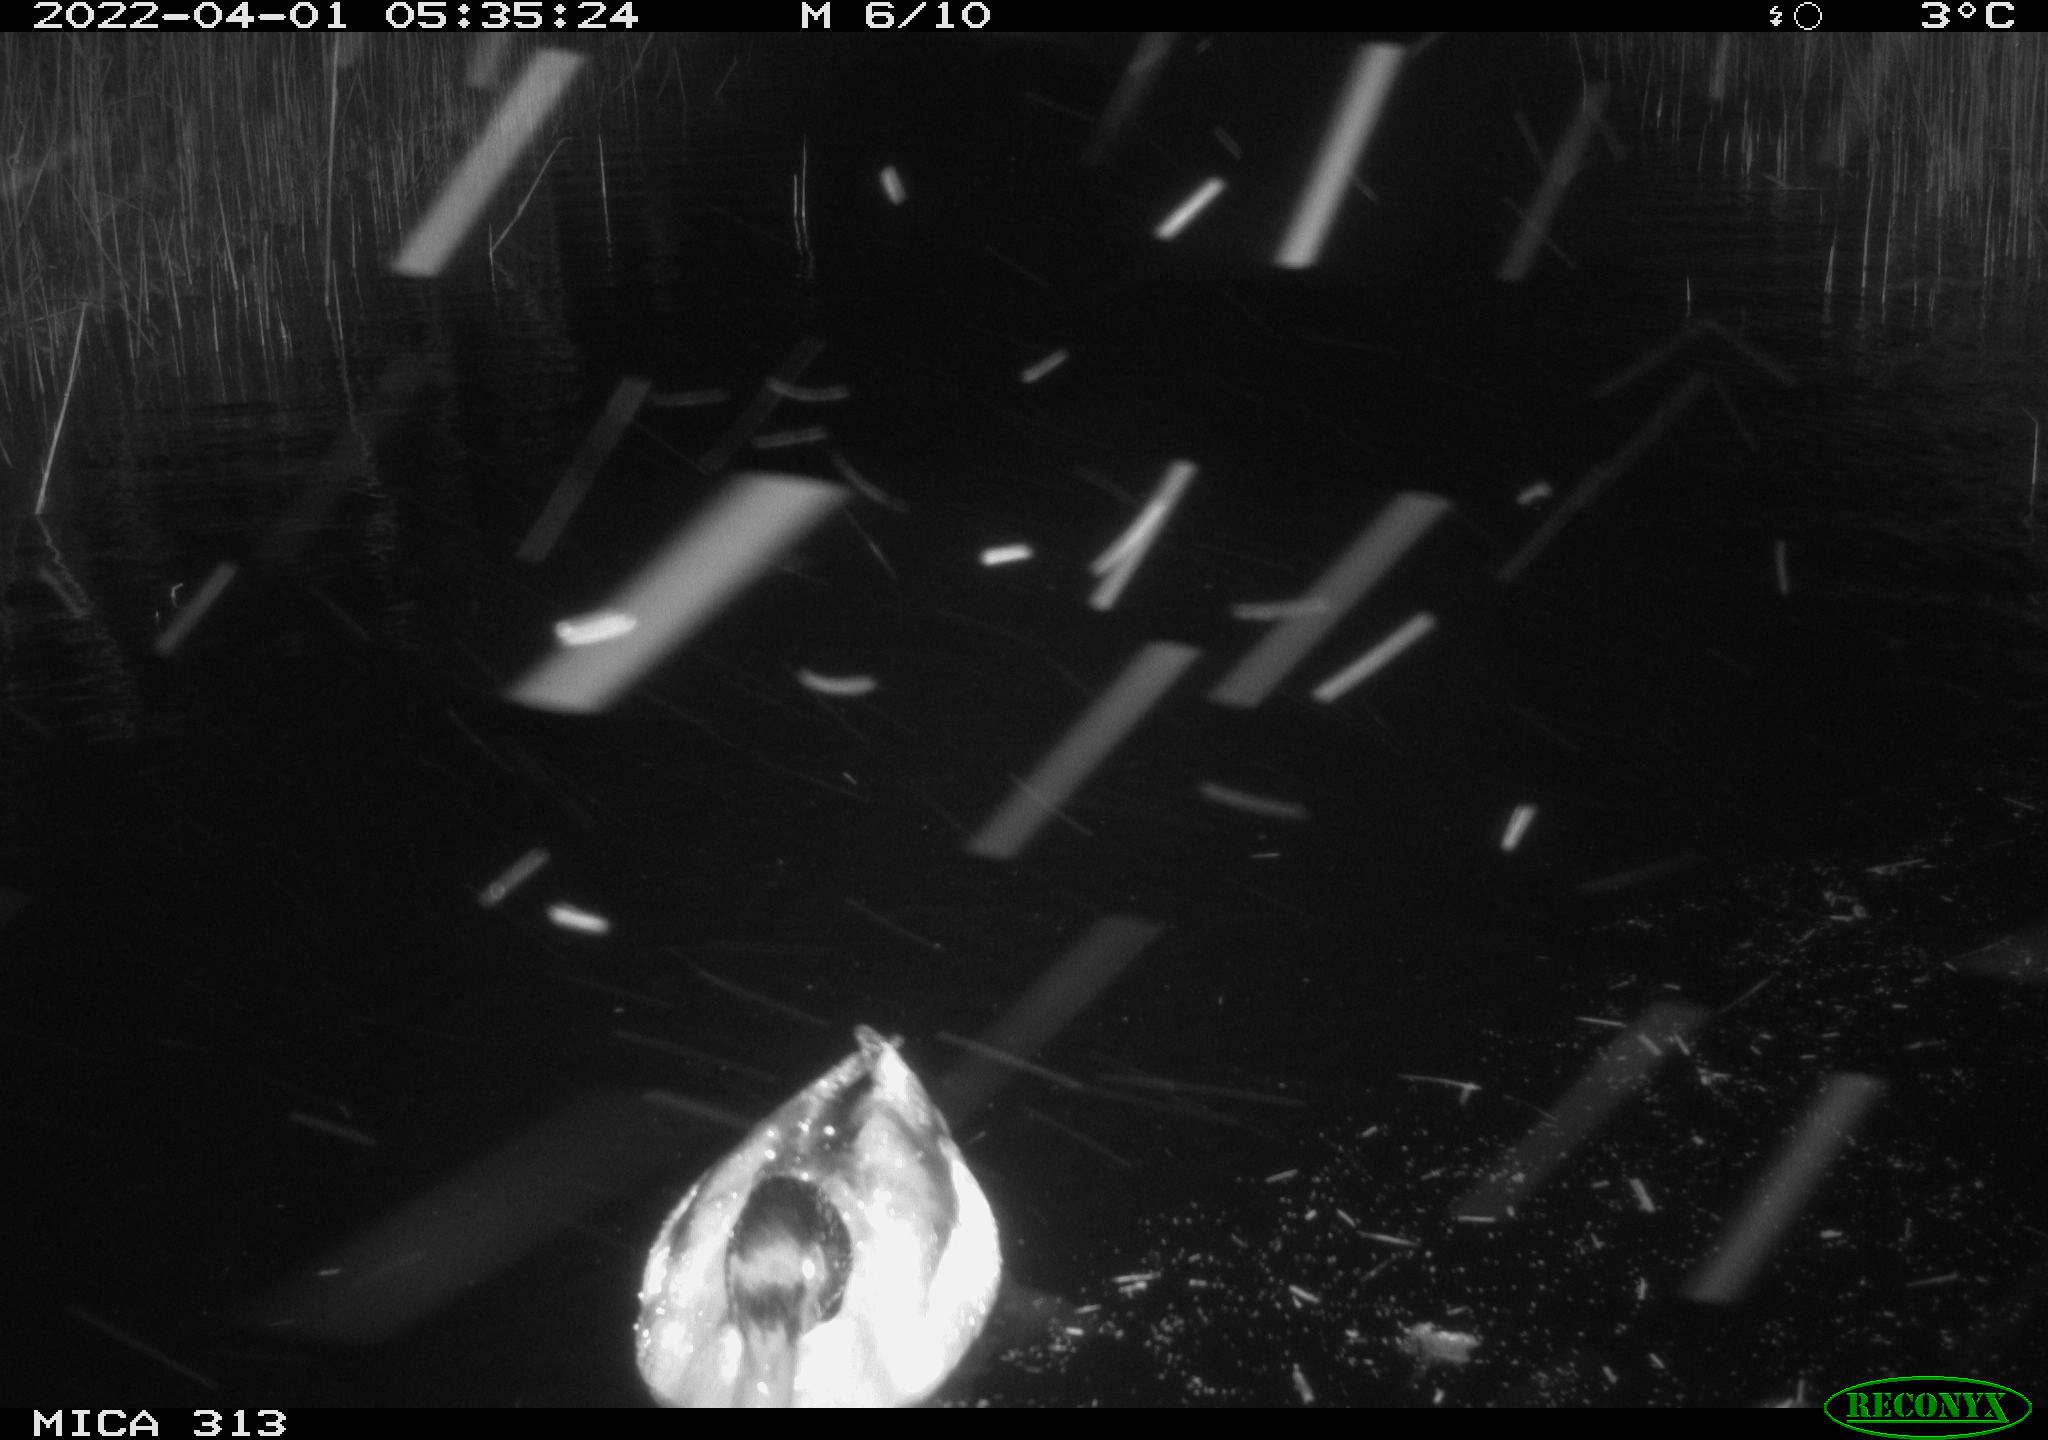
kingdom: Animalia
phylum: Chordata
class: Aves
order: Gruiformes
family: Rallidae
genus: Fulica
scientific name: Fulica atra
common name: Eurasian coot
